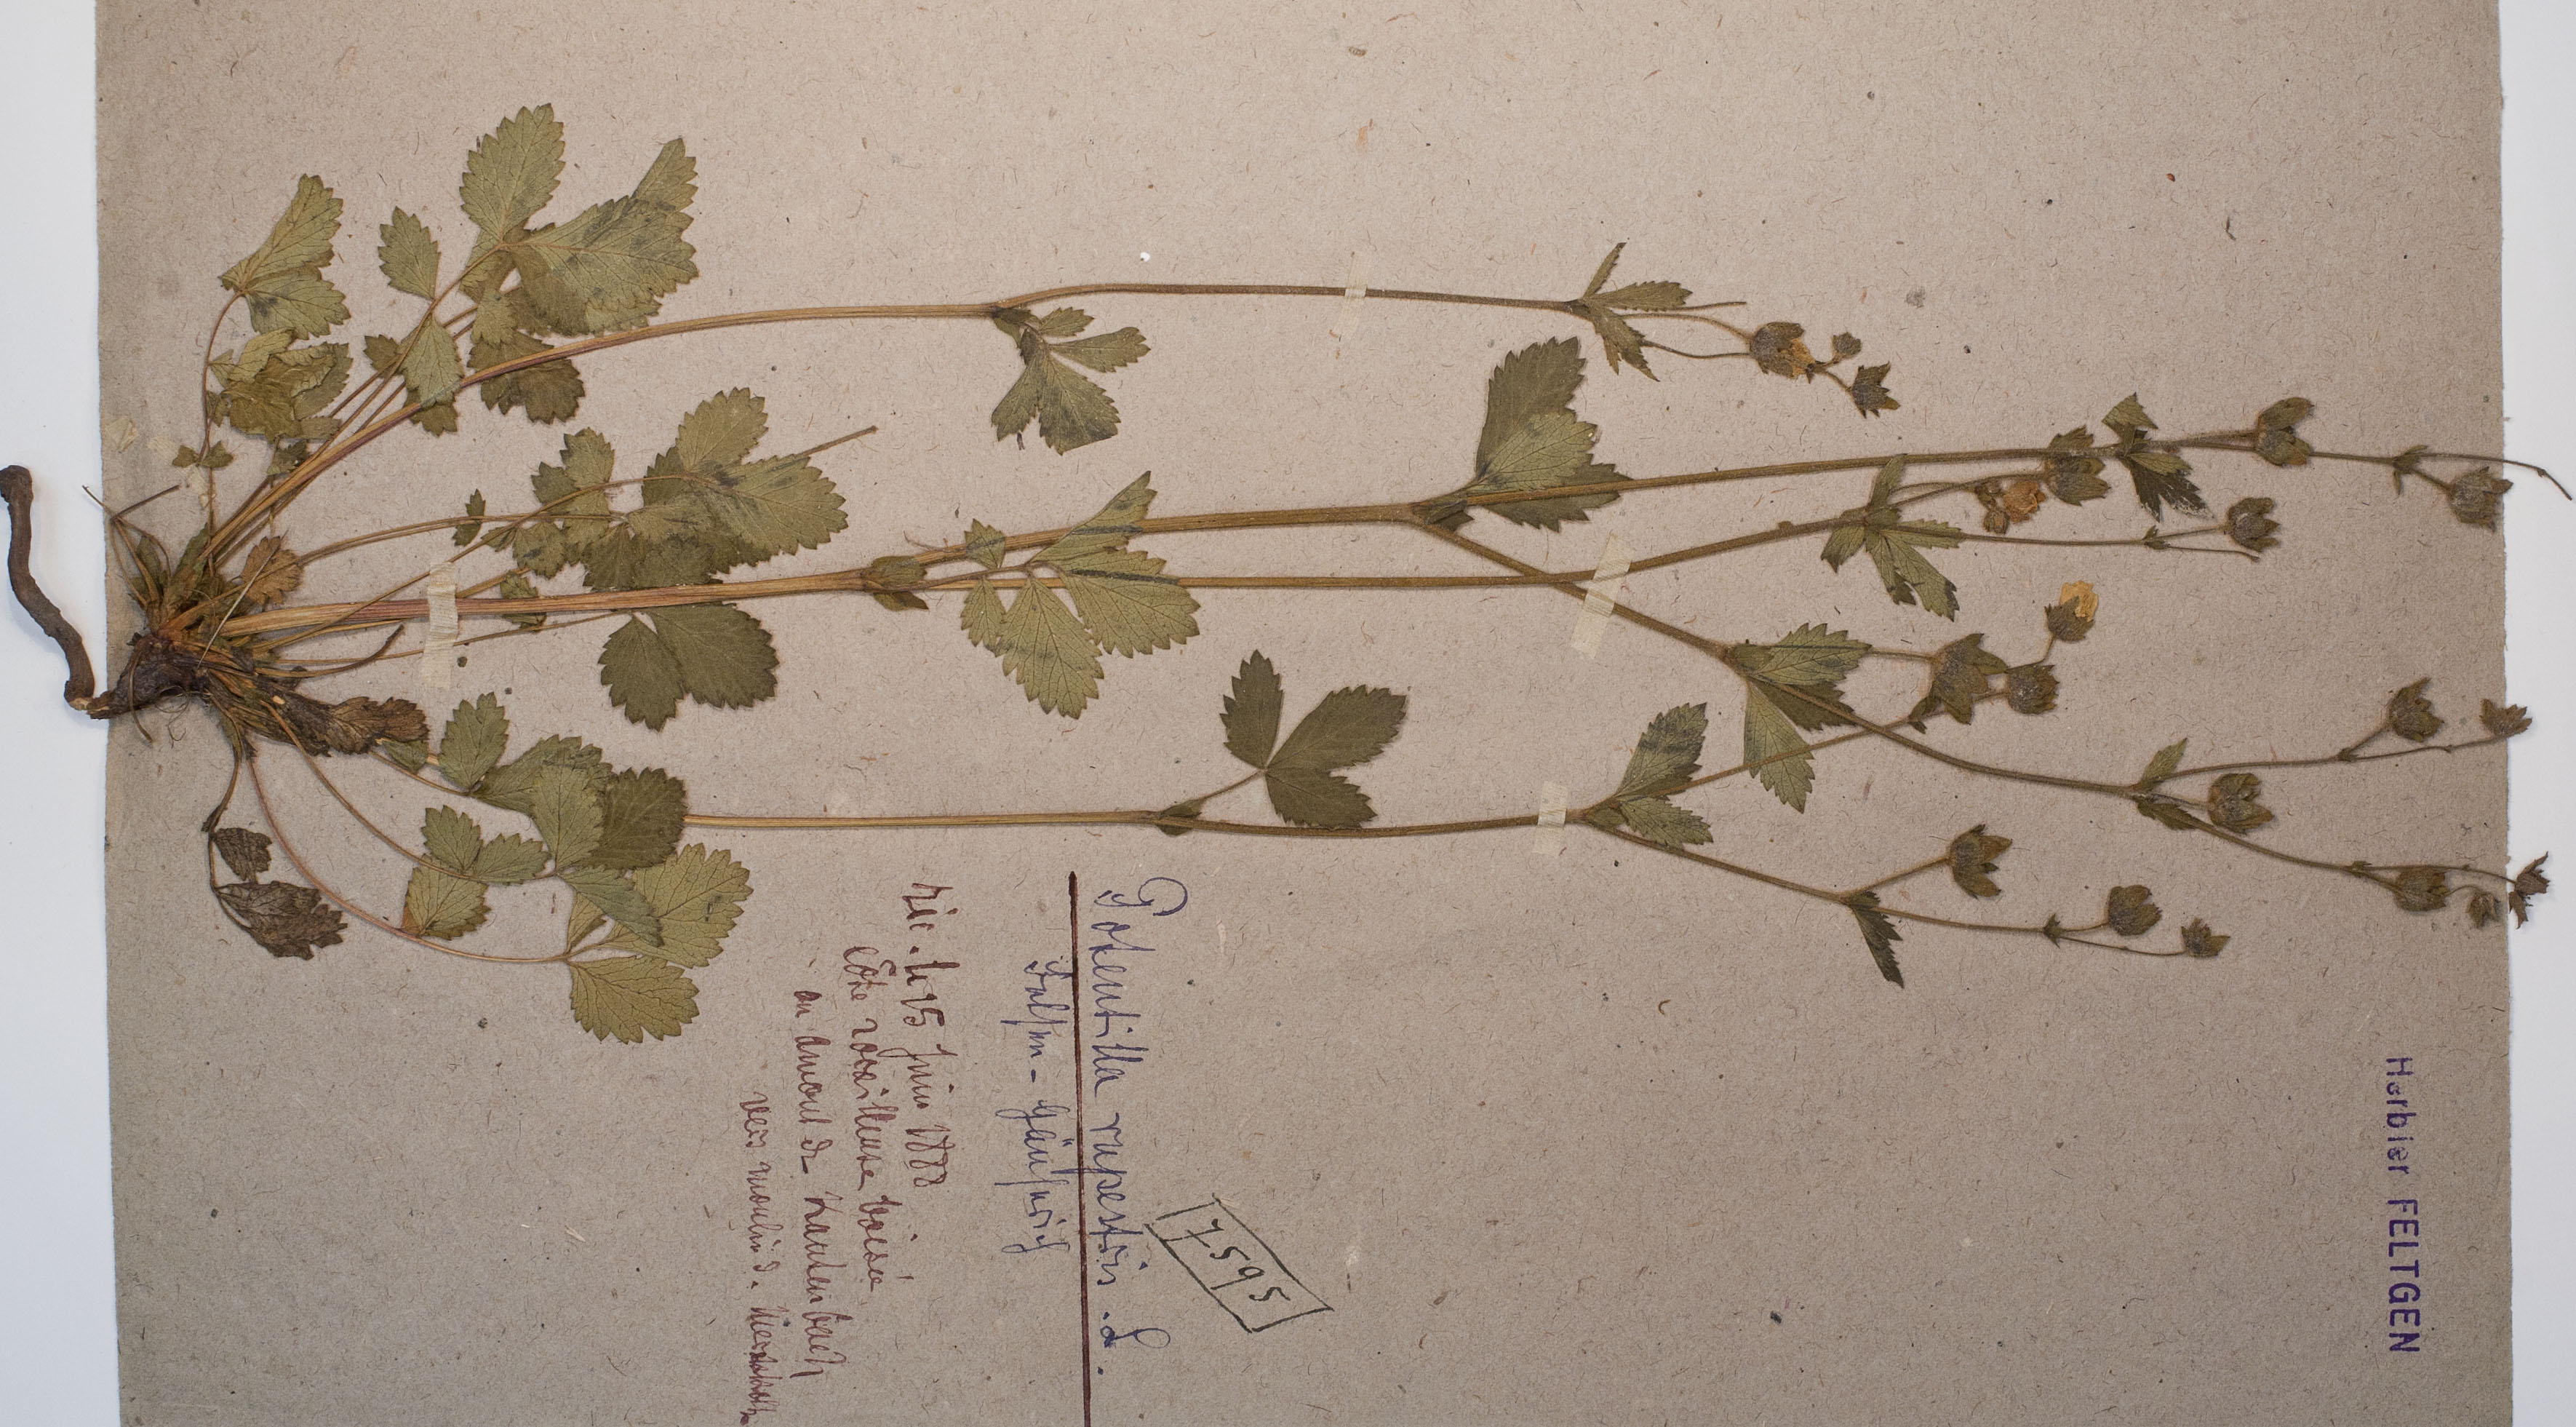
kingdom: Plantae
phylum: Tracheophyta
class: Magnoliopsida
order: Rosales
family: Rosaceae
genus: Drymocallis
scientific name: Drymocallis rupestris
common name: Rock cinquefoil
